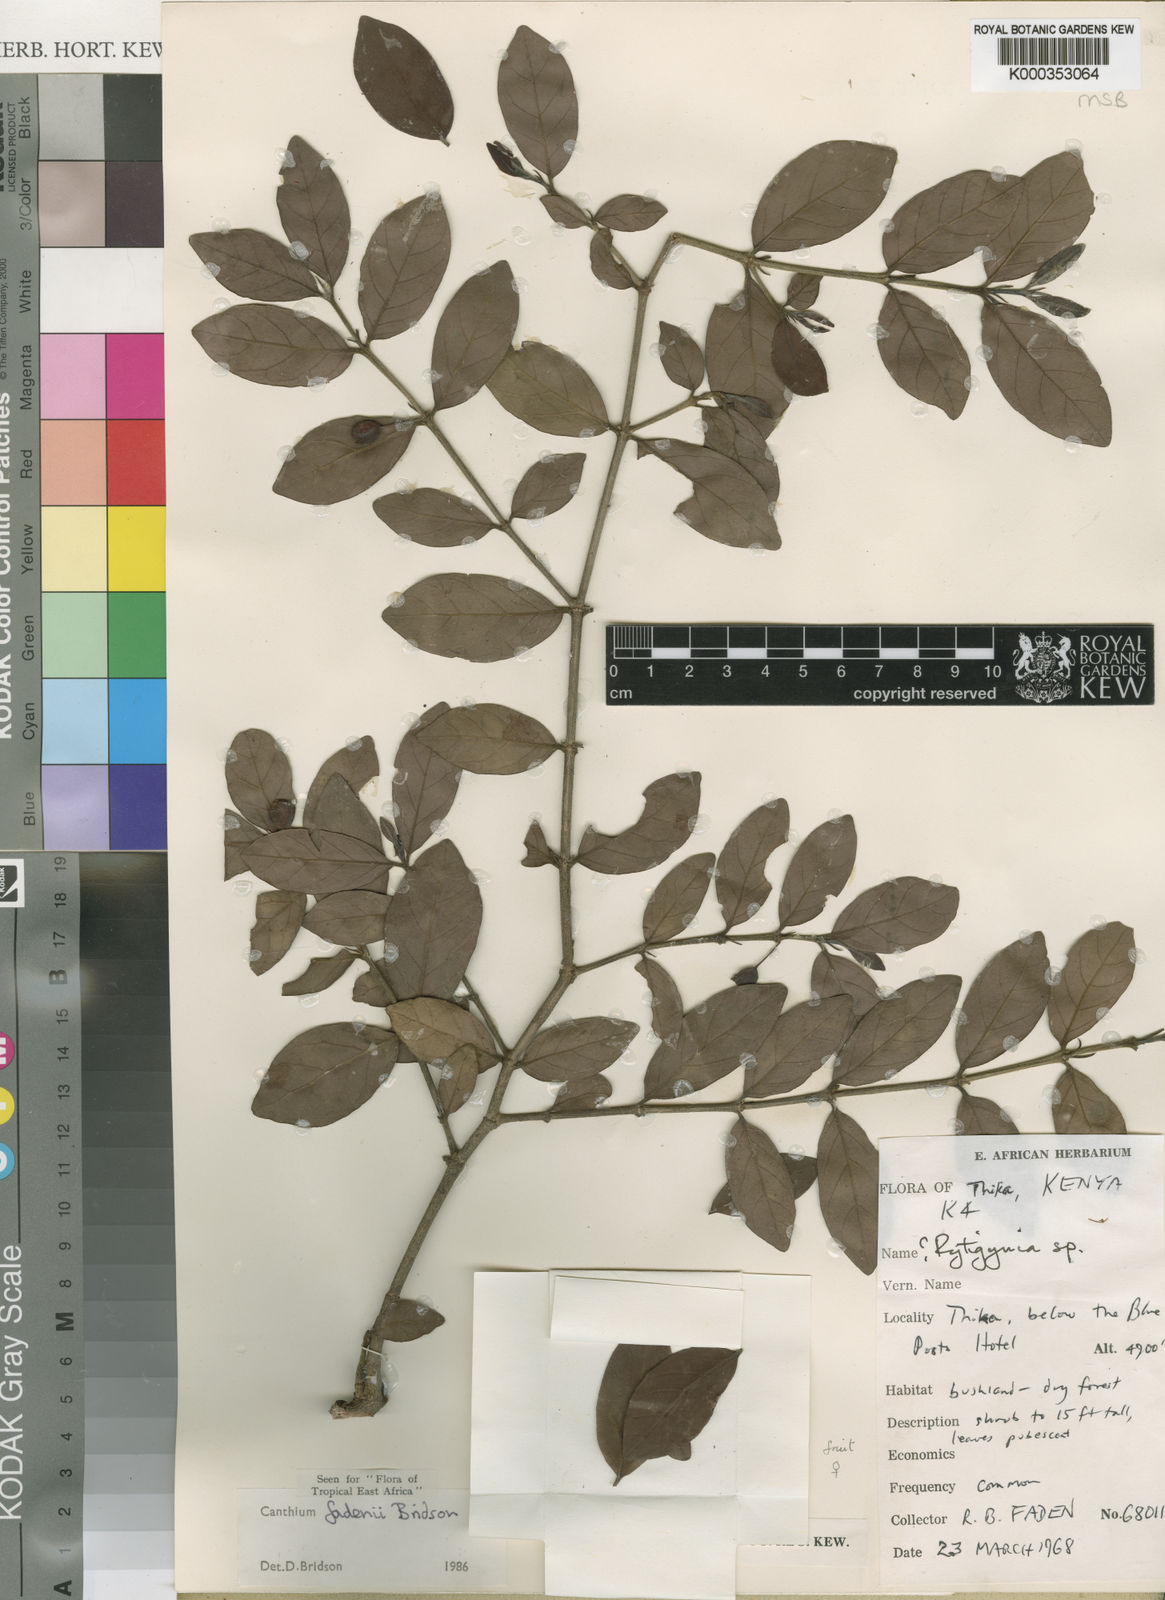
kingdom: Plantae
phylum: Tracheophyta
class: Magnoliopsida
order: Gentianales
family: Rubiaceae
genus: Bullockia
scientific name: Bullockia fadenii
